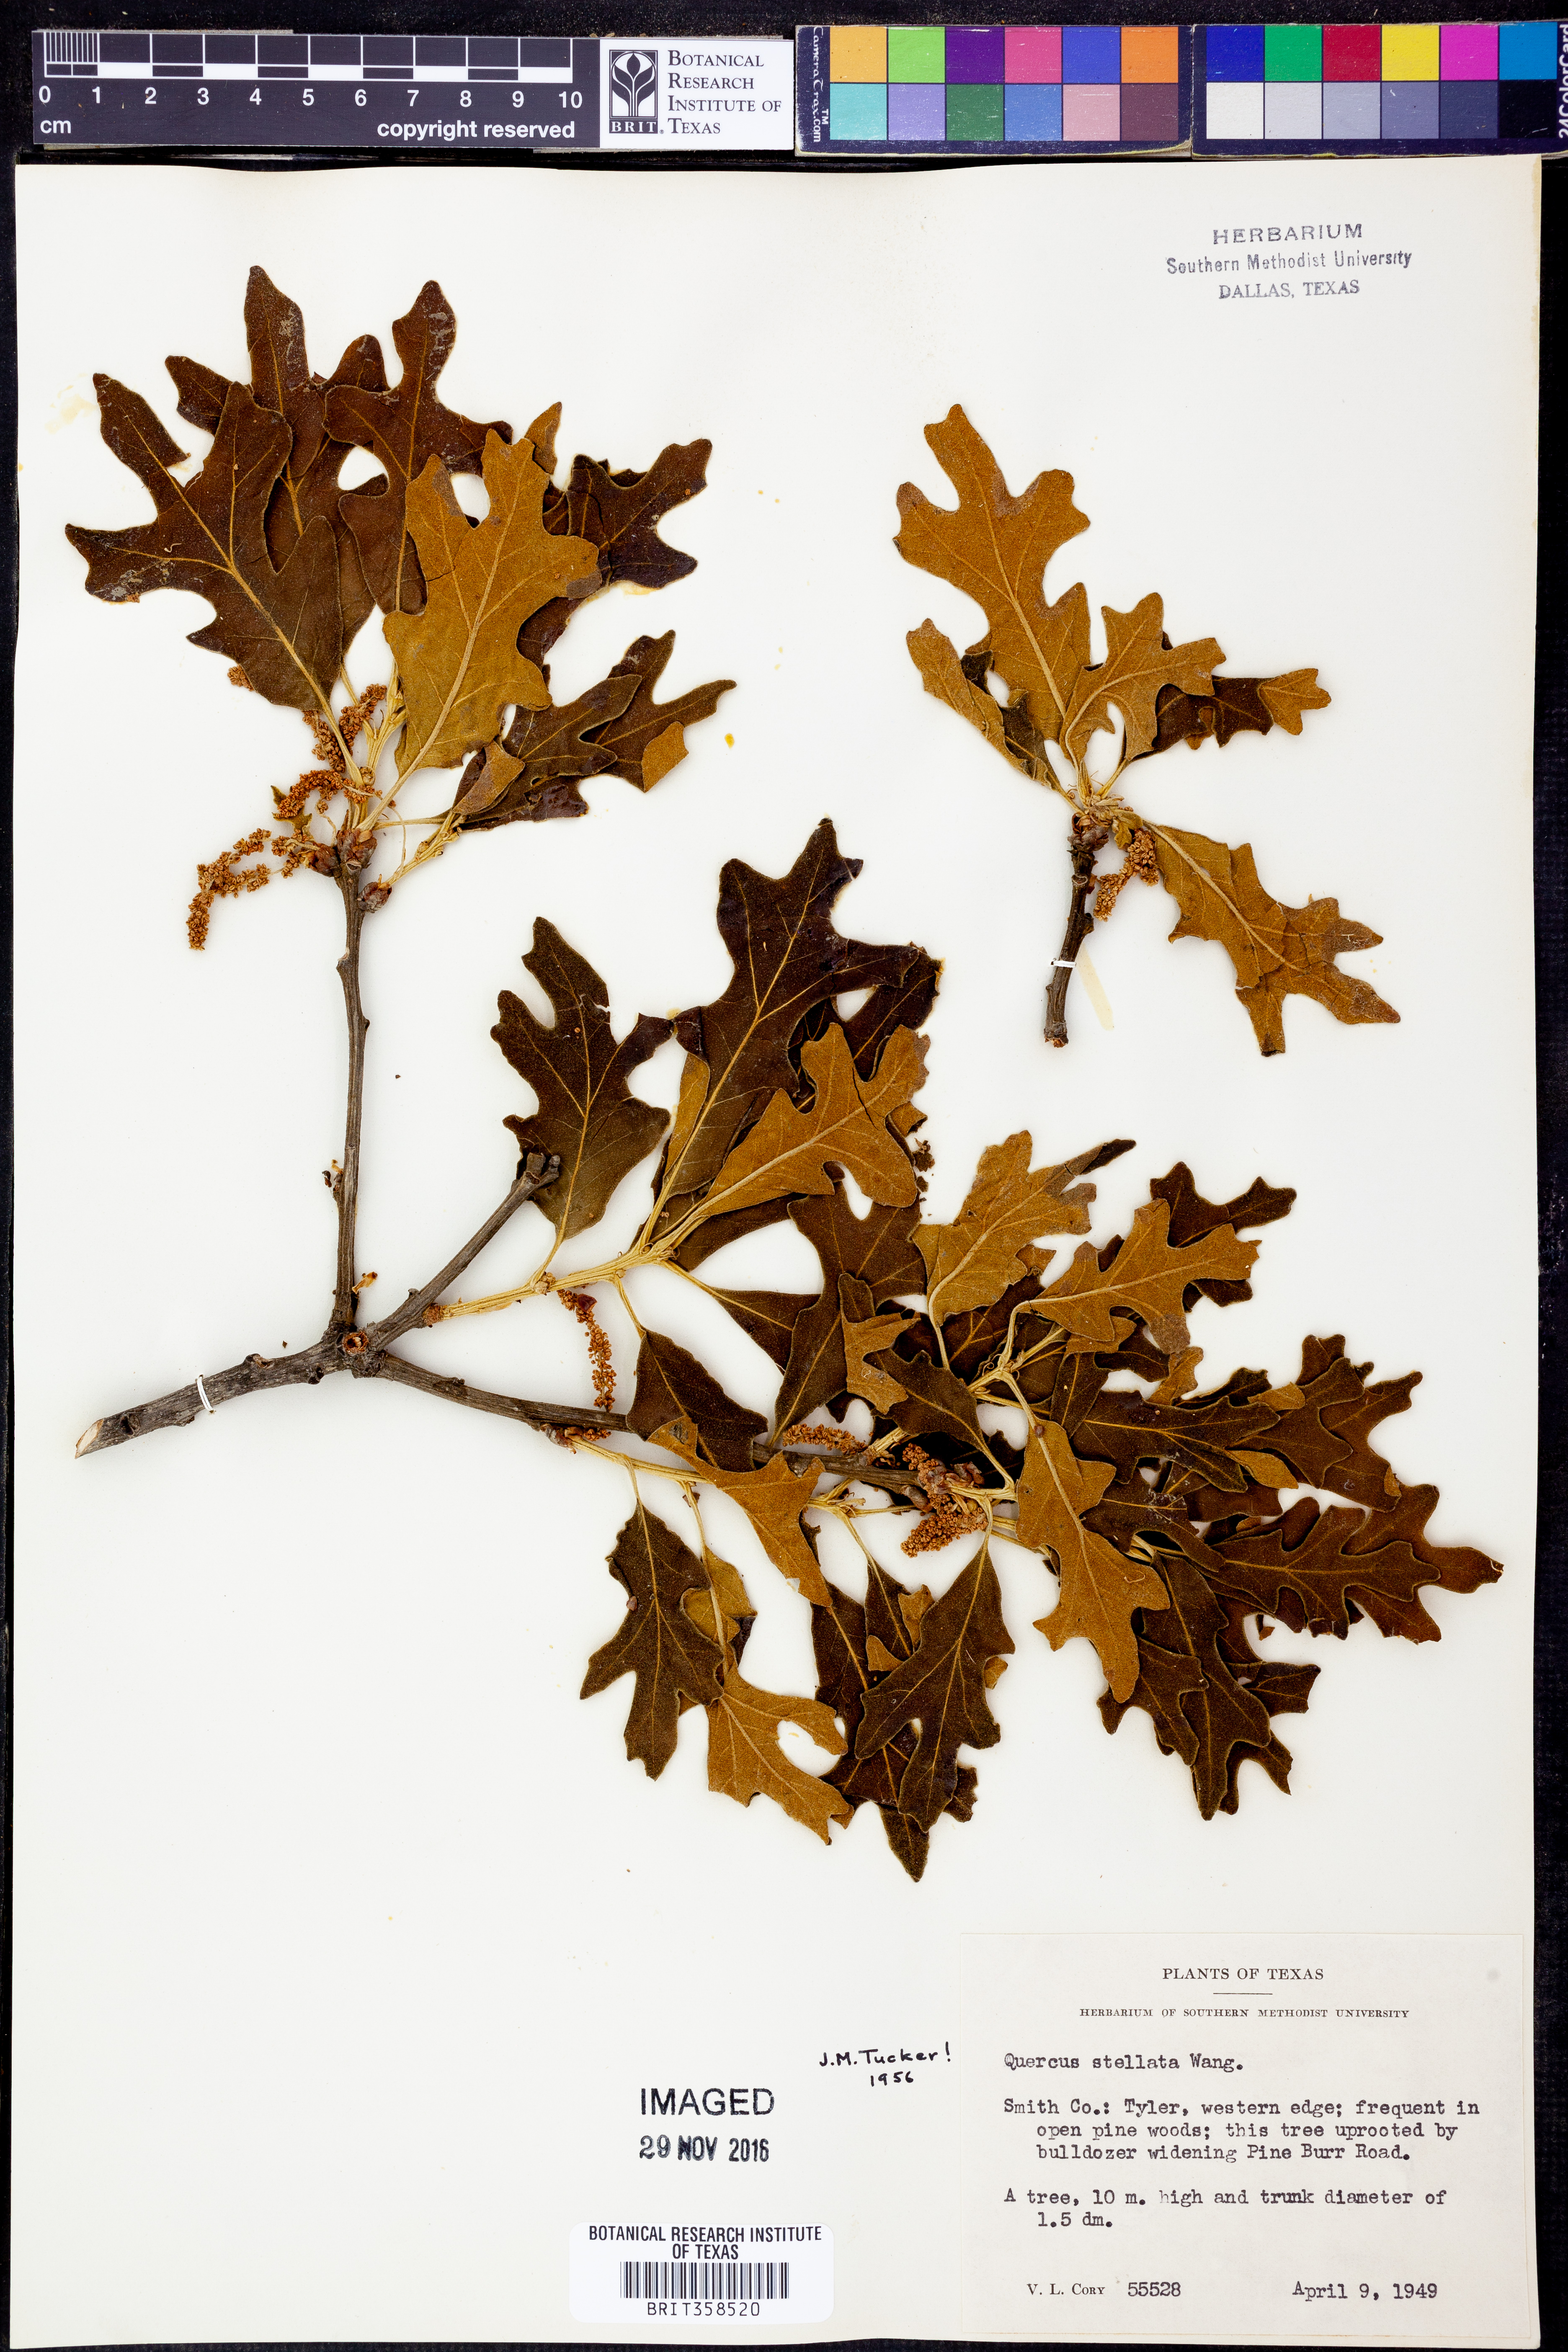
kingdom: Plantae
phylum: Tracheophyta
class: Magnoliopsida
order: Fagales
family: Fagaceae
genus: Quercus
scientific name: Quercus stellata
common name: Post oak
